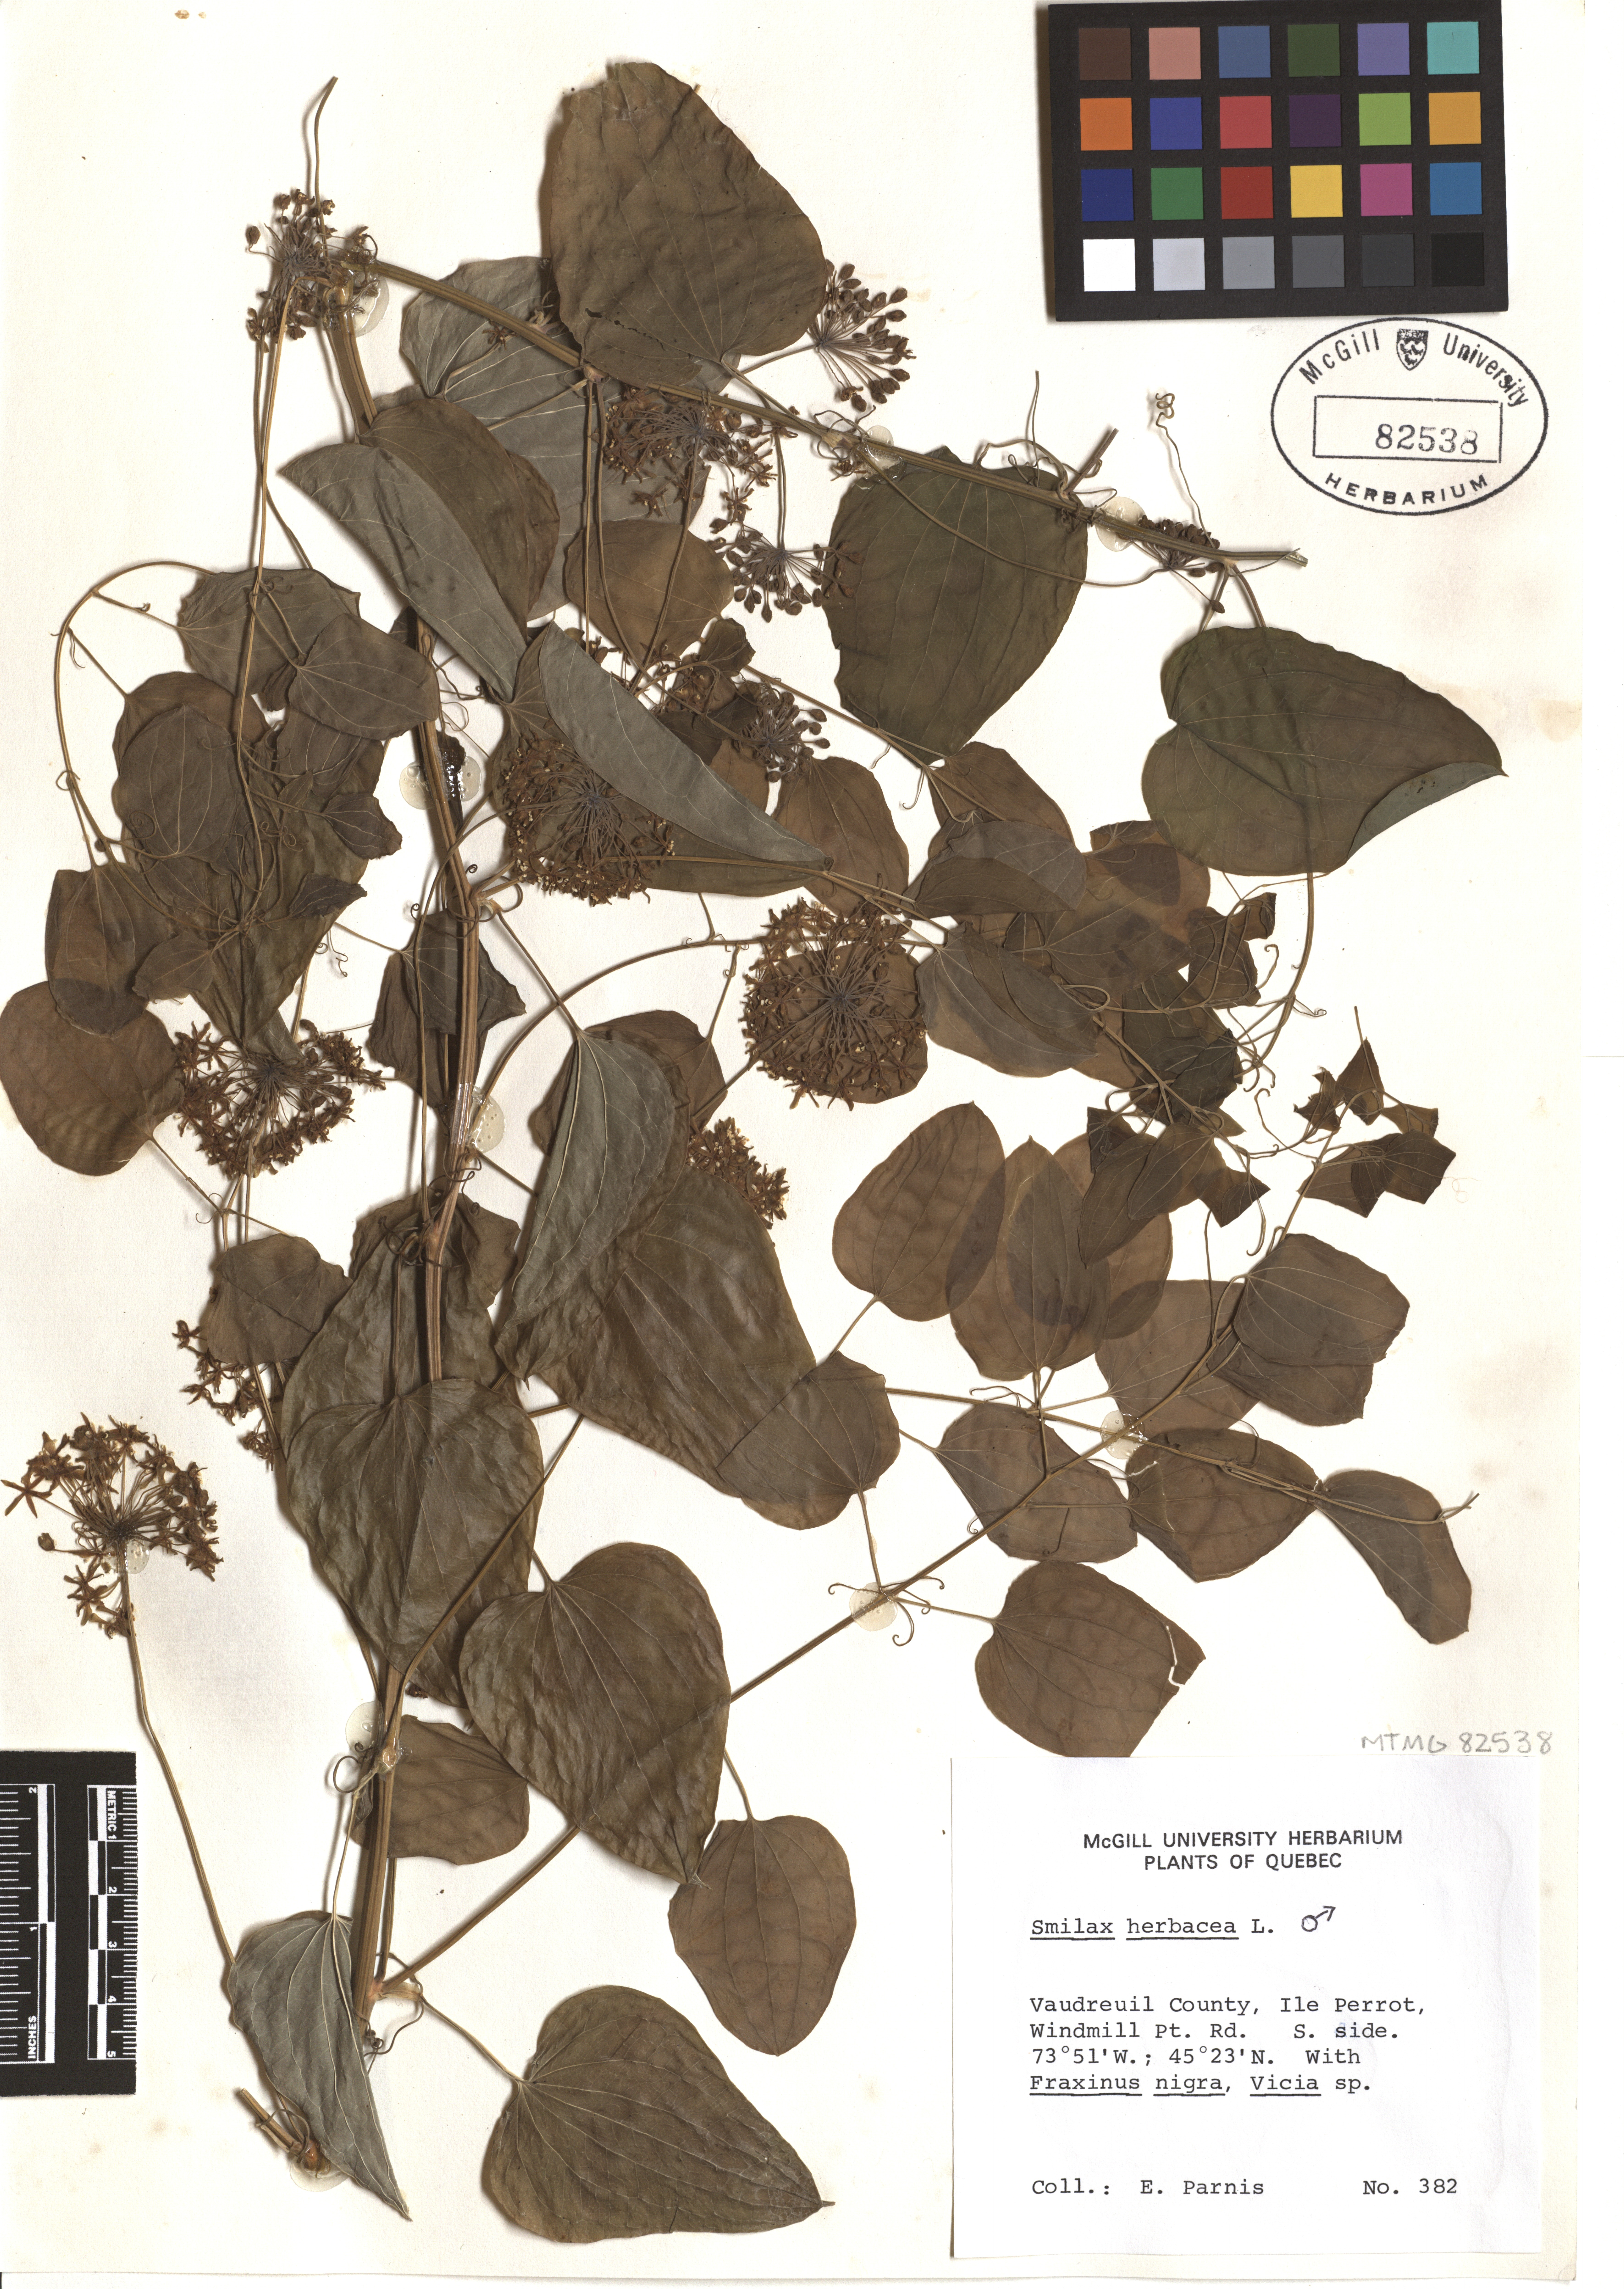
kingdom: Plantae
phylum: Tracheophyta
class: Liliopsida
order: Liliales
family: Smilacaceae
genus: Smilax
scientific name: Smilax herbacea
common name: Jacob's-ladder
